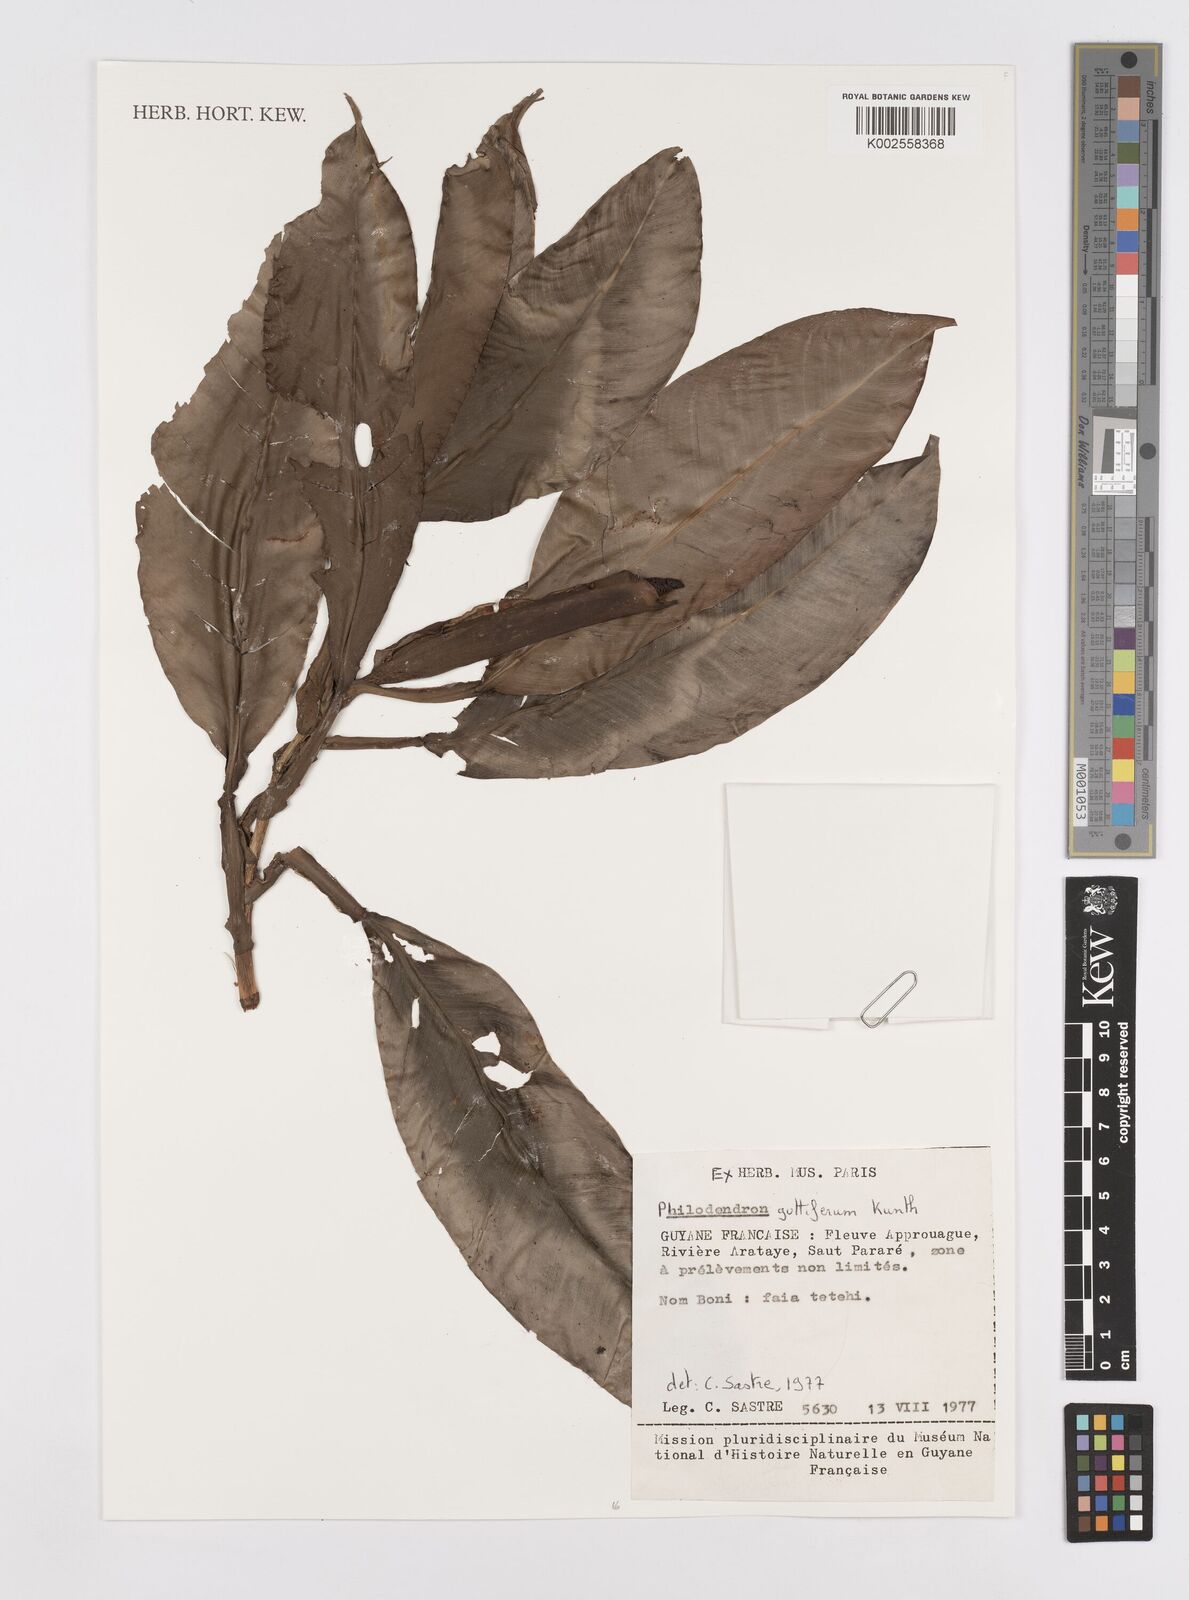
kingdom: Plantae
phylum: Tracheophyta
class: Liliopsida
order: Alismatales
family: Araceae
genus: Philodendron
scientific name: Philodendron guttiferum
